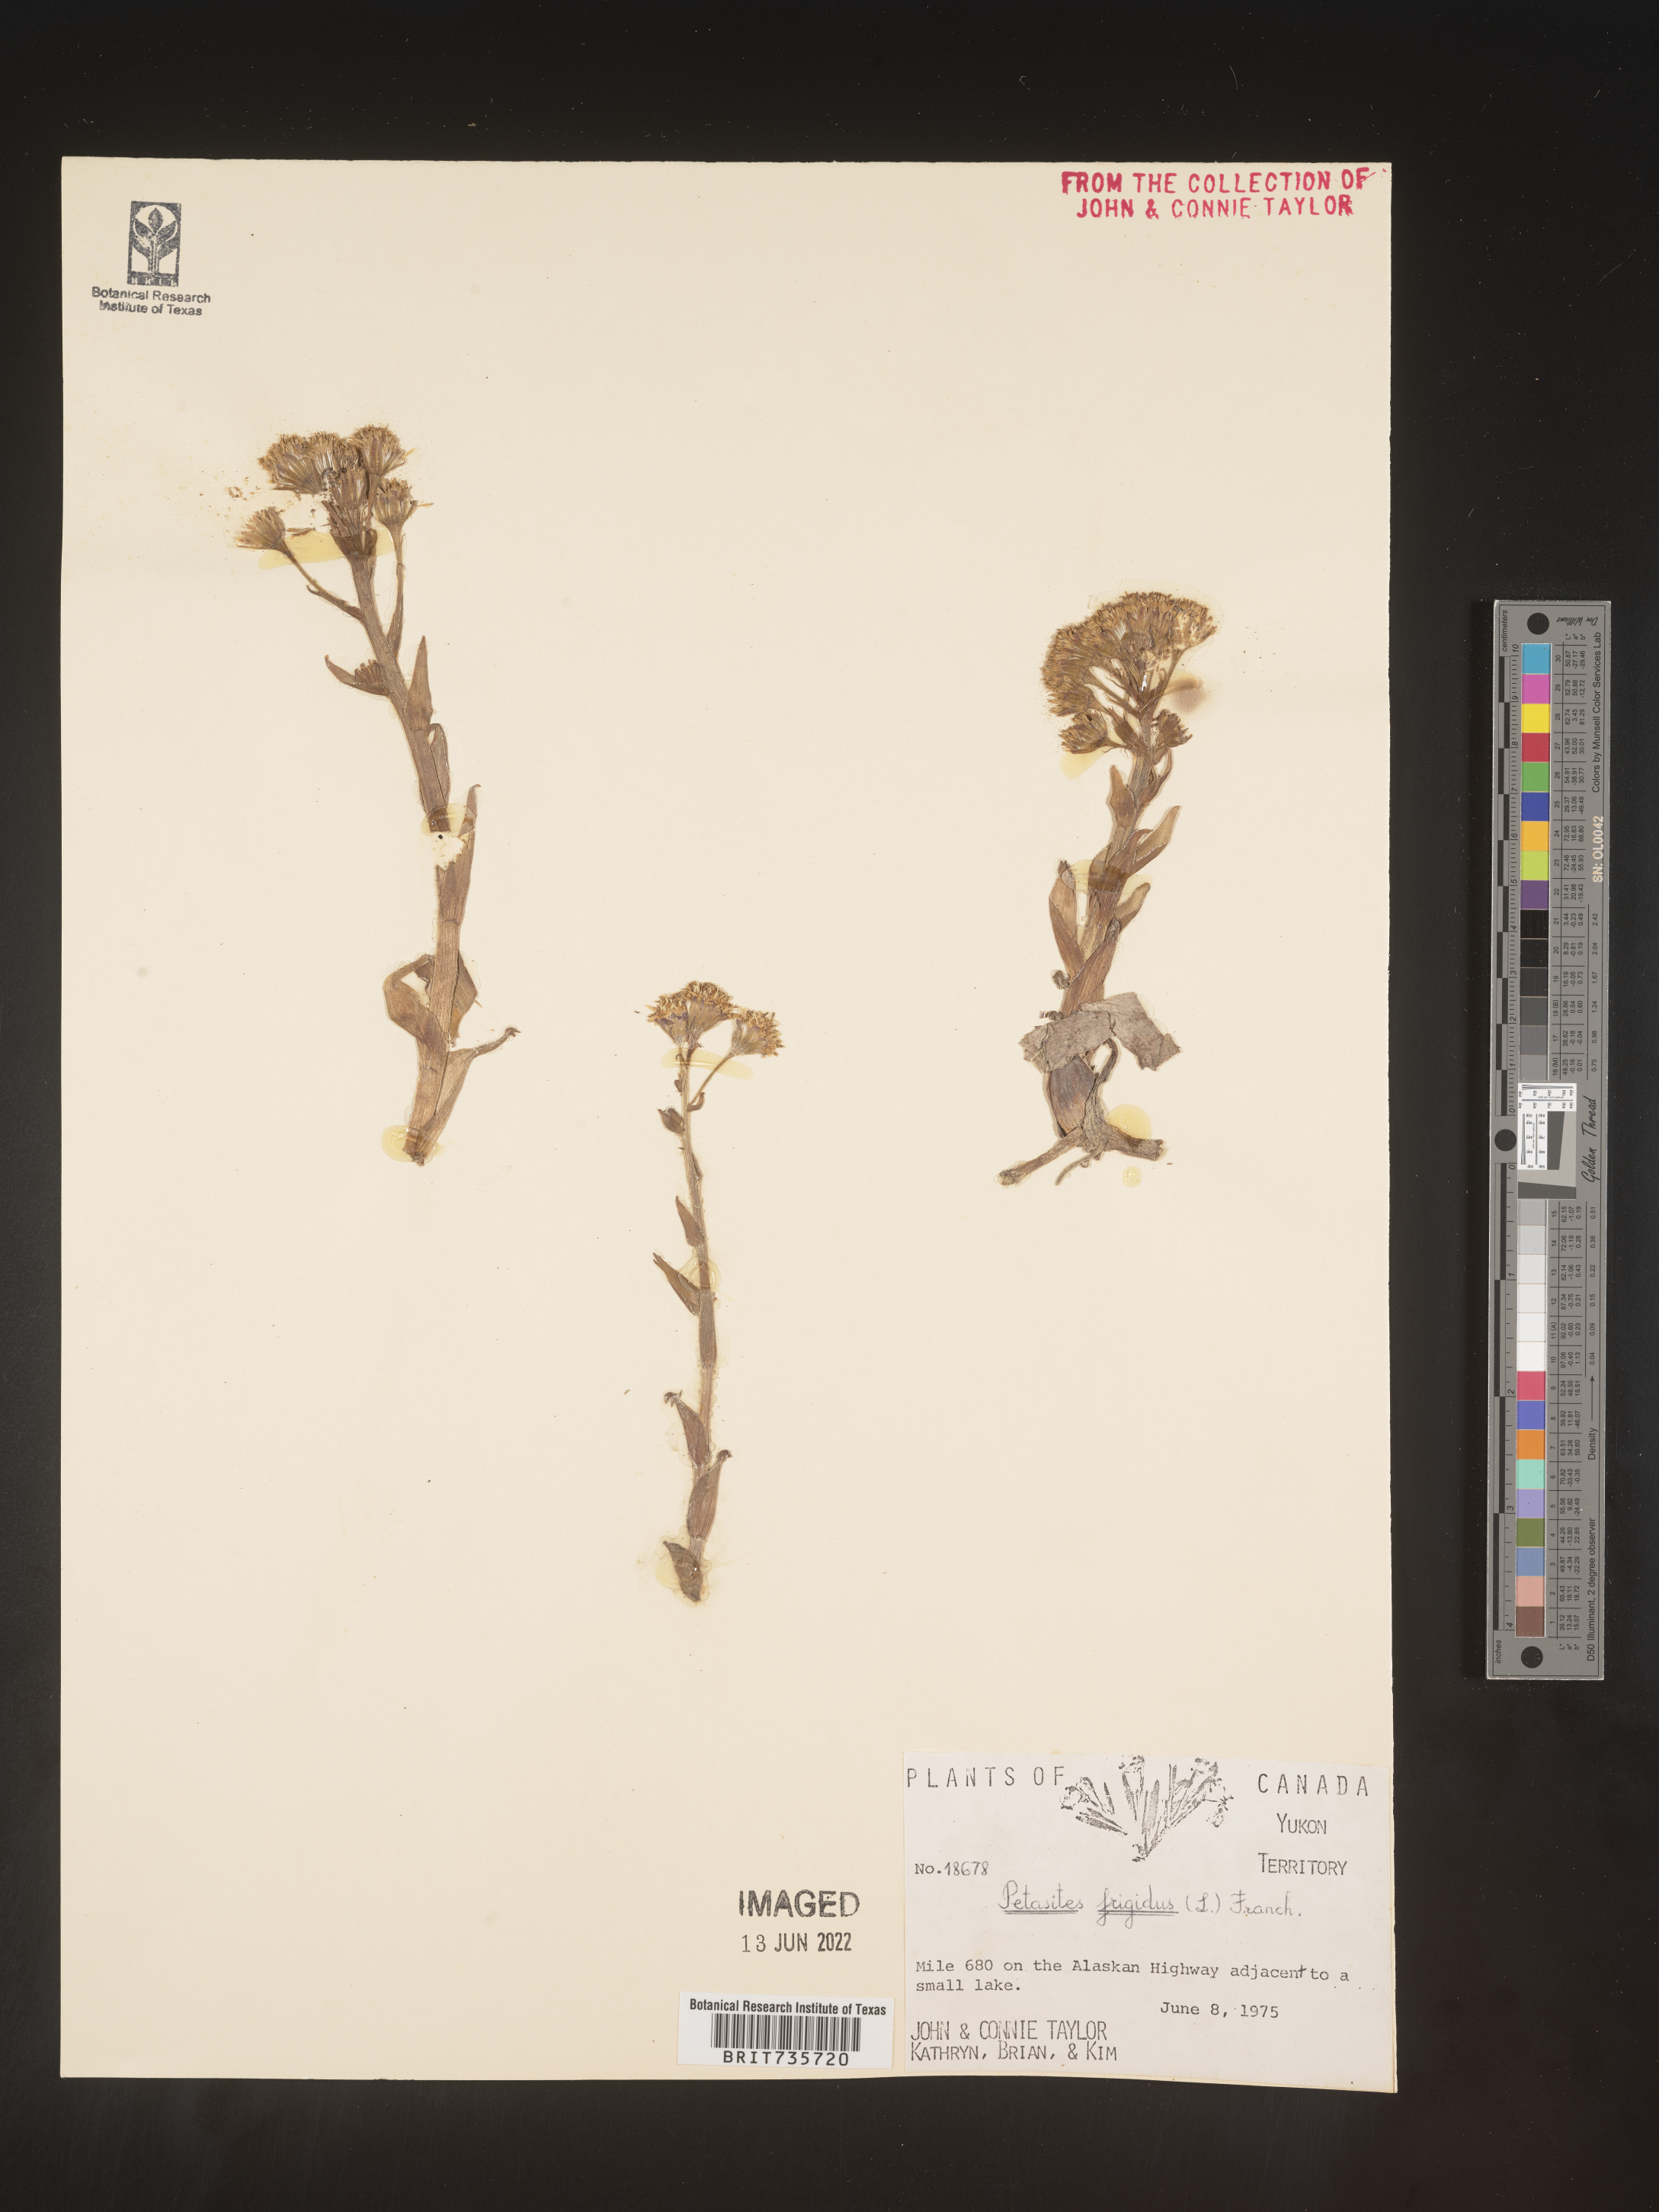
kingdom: Plantae
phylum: Tracheophyta
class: Magnoliopsida
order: Asterales
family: Asteraceae
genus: Petasites
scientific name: Petasites frigidus
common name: Arctic butterbur
